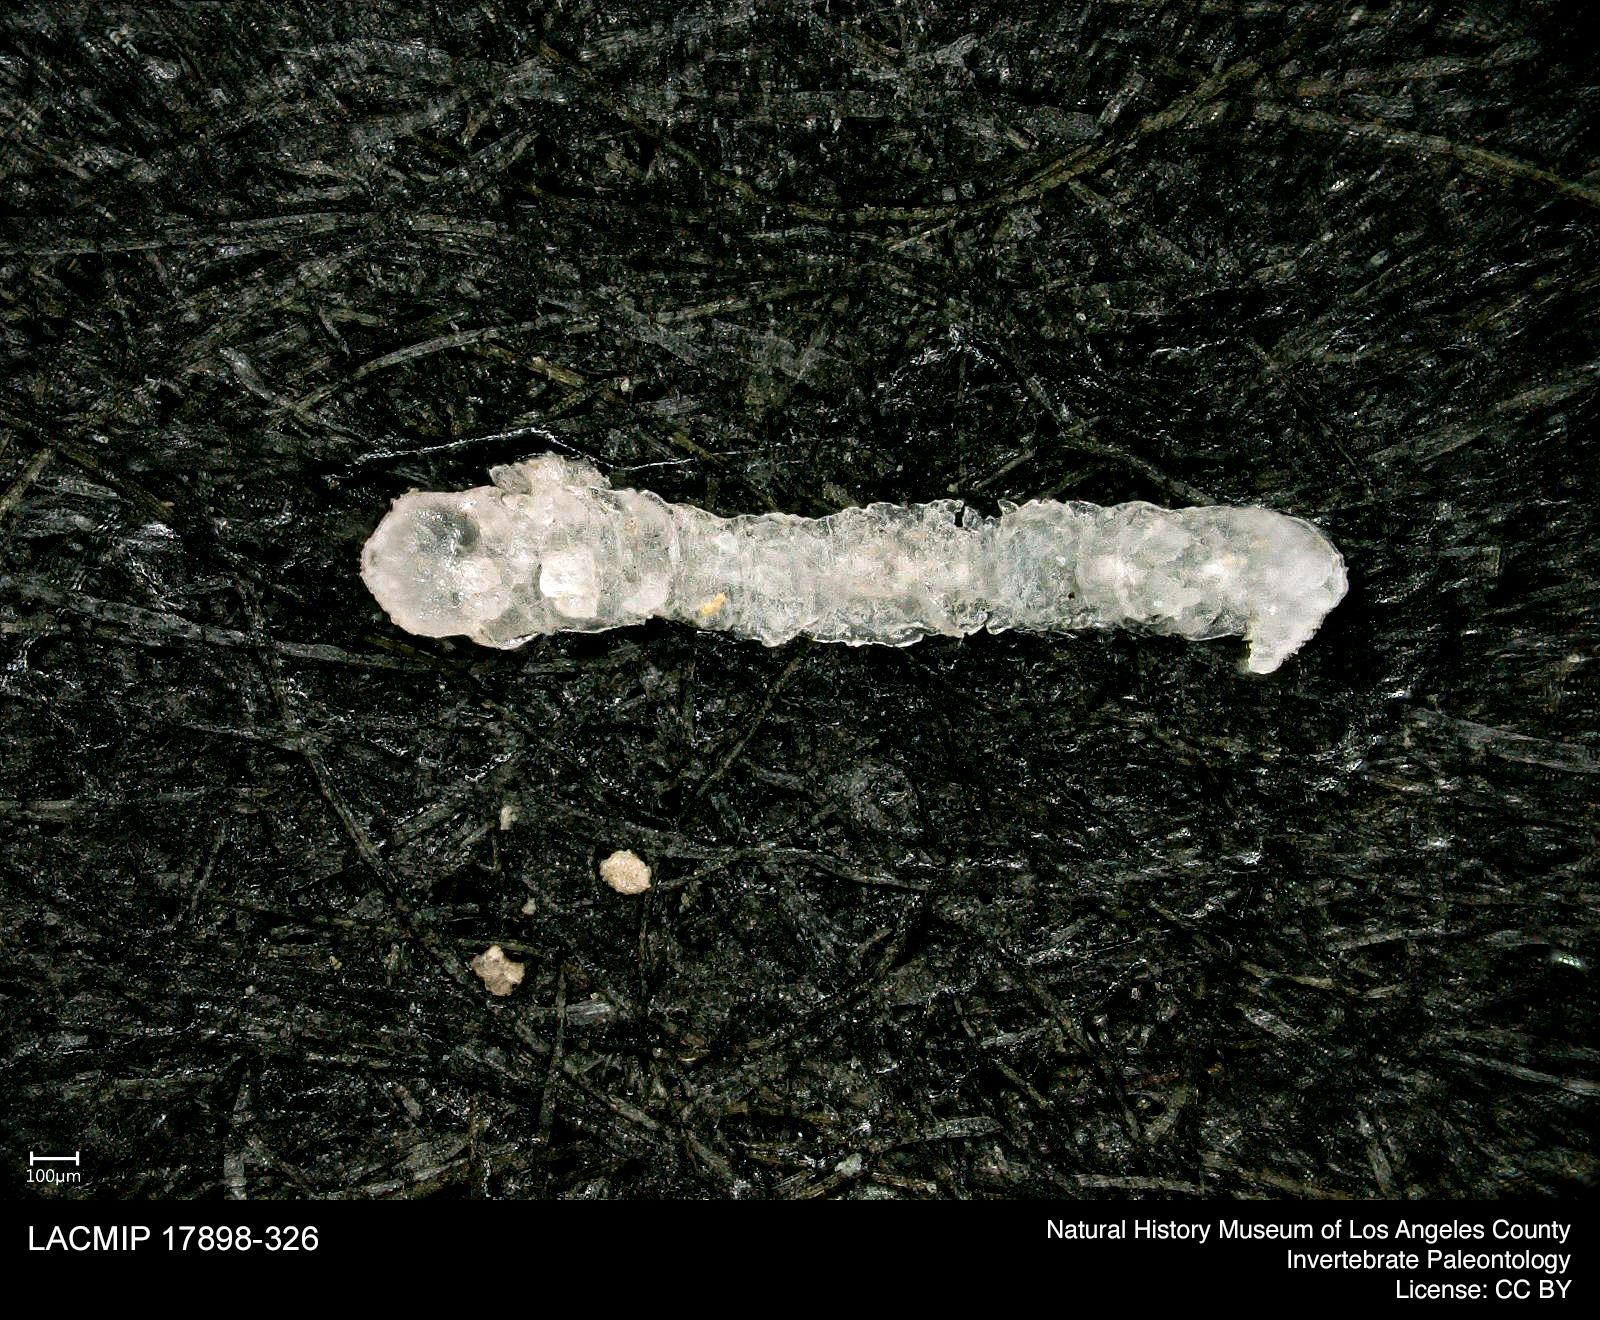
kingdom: Animalia
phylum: Arthropoda
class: Insecta
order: Lepidoptera
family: Geometridae
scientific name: Geometridae
